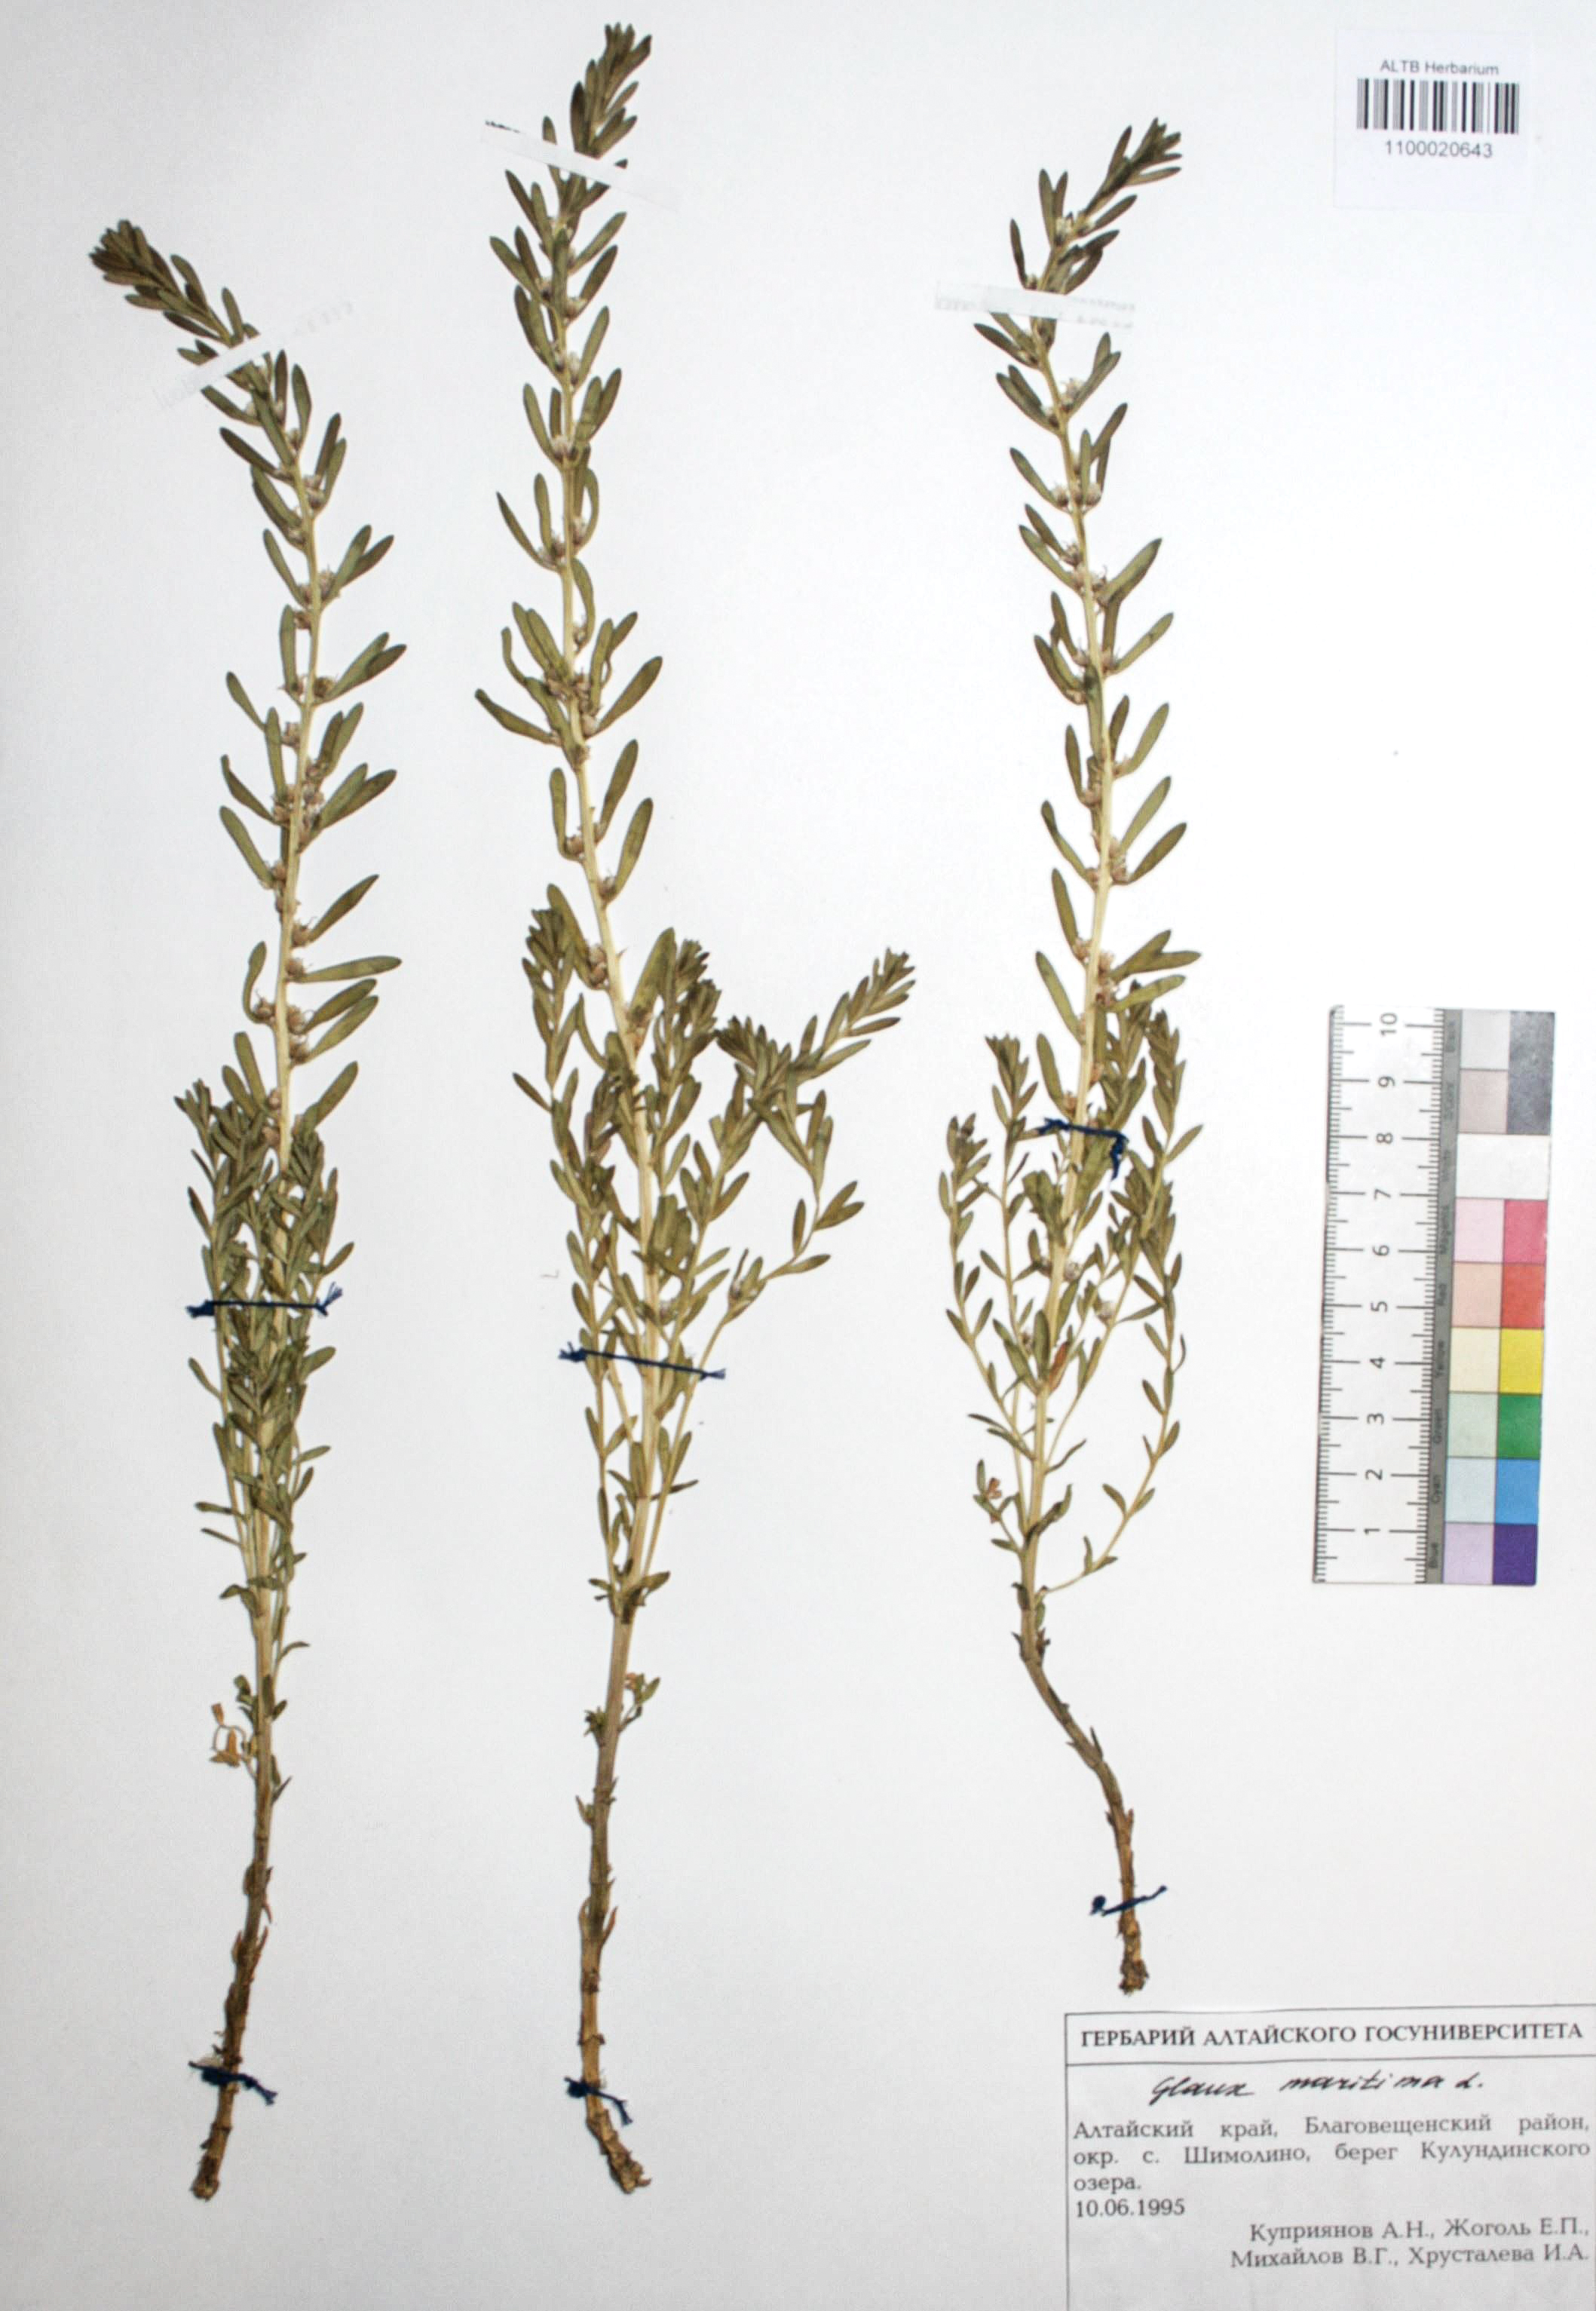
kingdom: Plantae
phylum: Tracheophyta
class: Magnoliopsida
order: Ericales
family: Primulaceae
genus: Lysimachia
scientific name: Lysimachia maritima
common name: Sea milkwort
